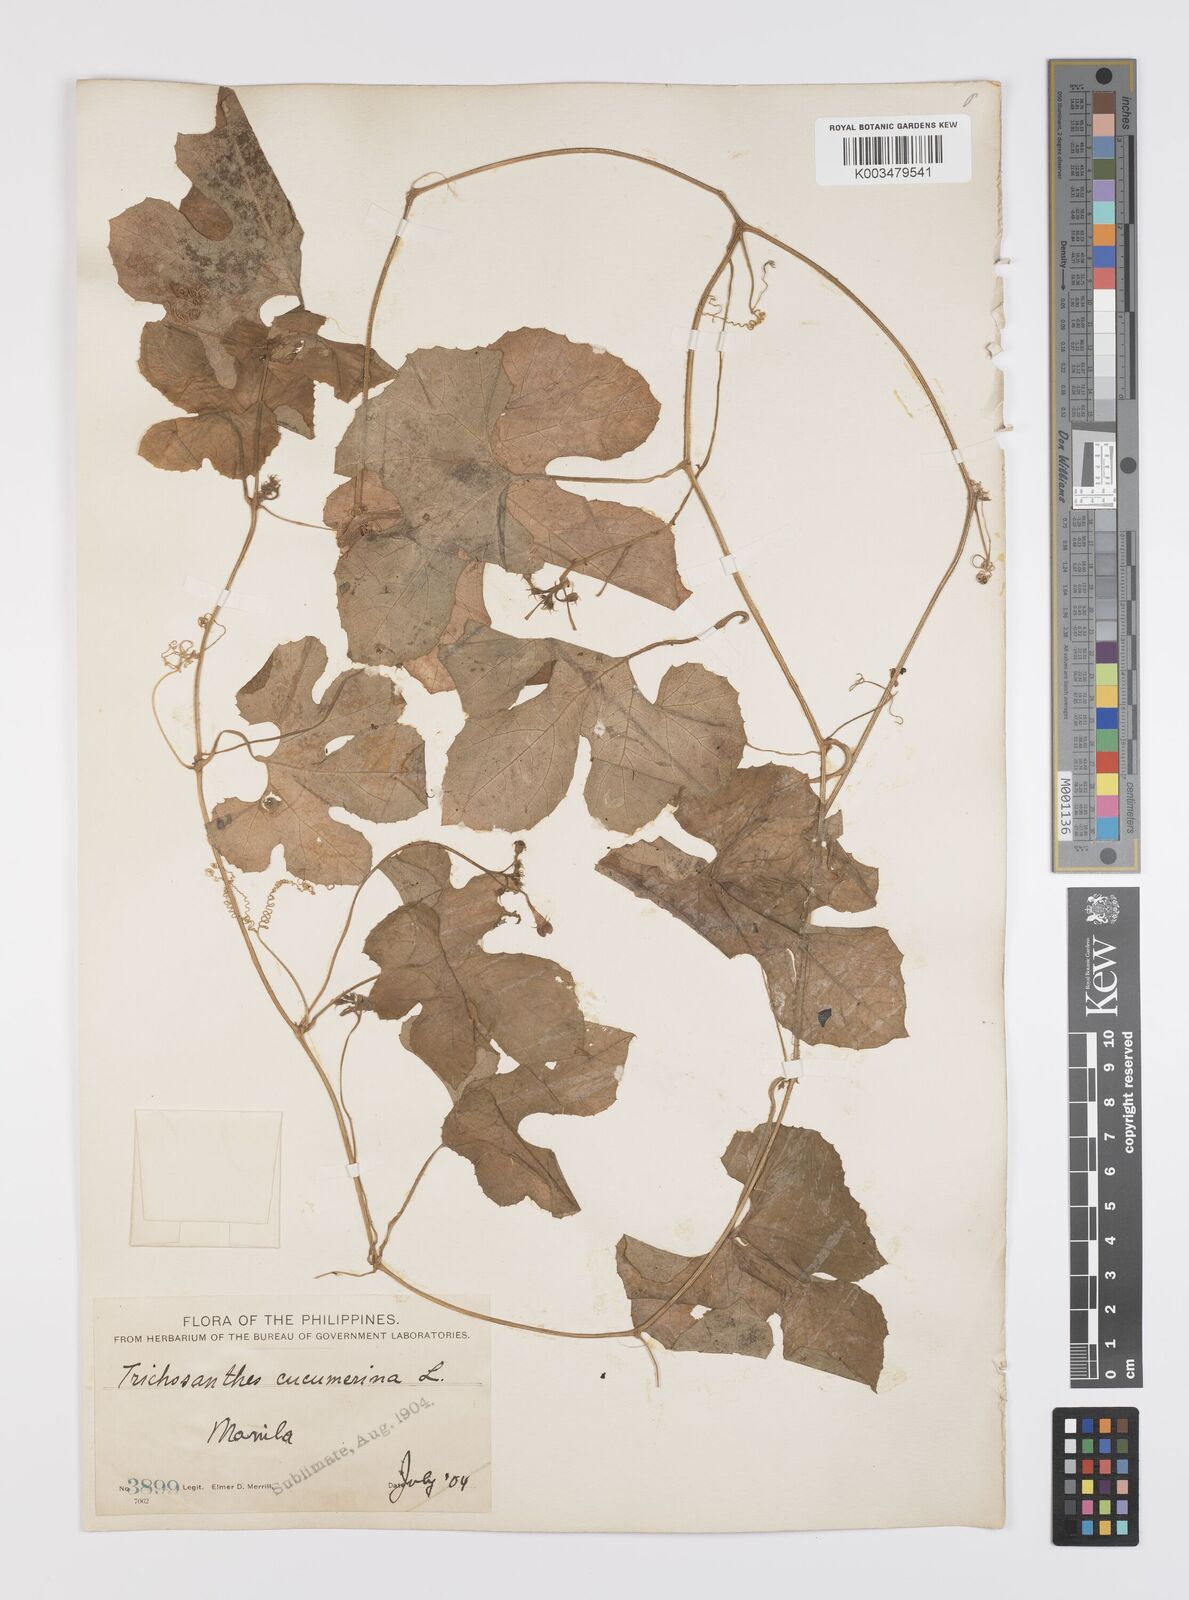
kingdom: Plantae
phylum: Tracheophyta
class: Magnoliopsida
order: Cucurbitales
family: Cucurbitaceae
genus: Trichosanthes
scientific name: Trichosanthes cucumerina
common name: Snakegourd
